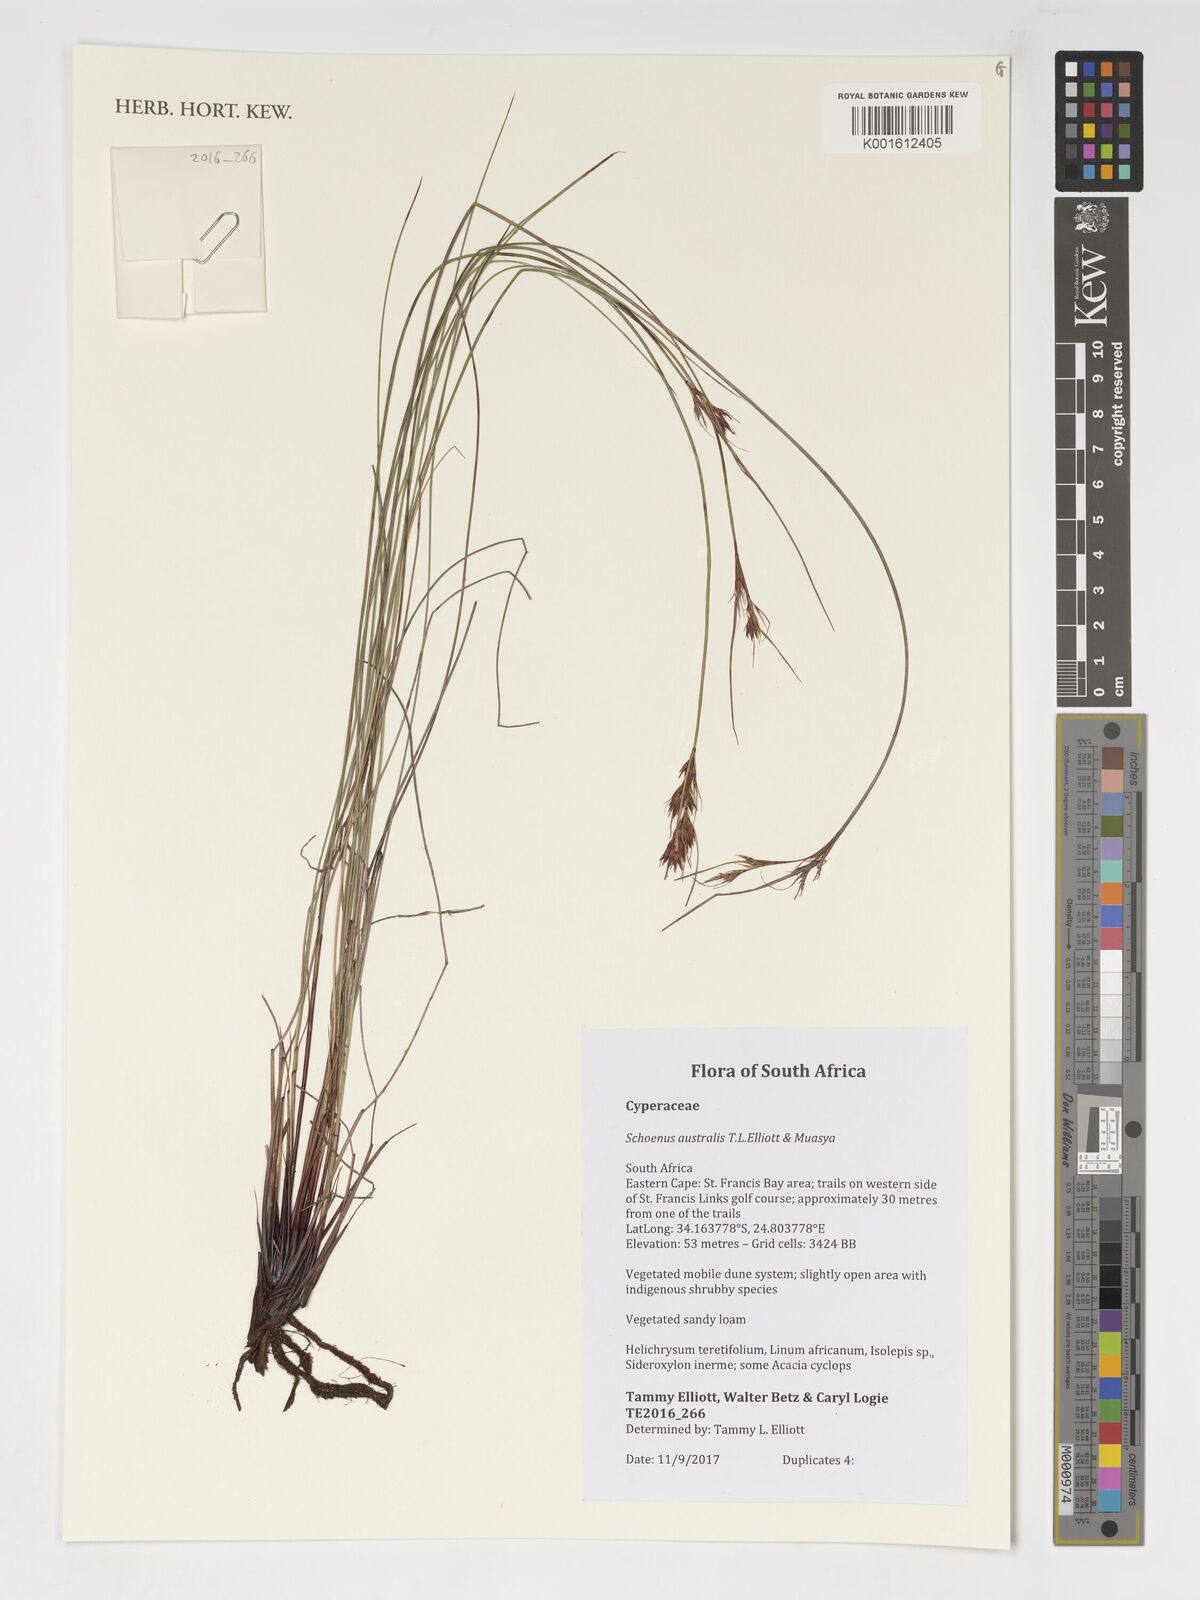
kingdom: Plantae
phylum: Tracheophyta
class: Liliopsida
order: Poales
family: Cyperaceae
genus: Schoenus
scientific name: Schoenus
